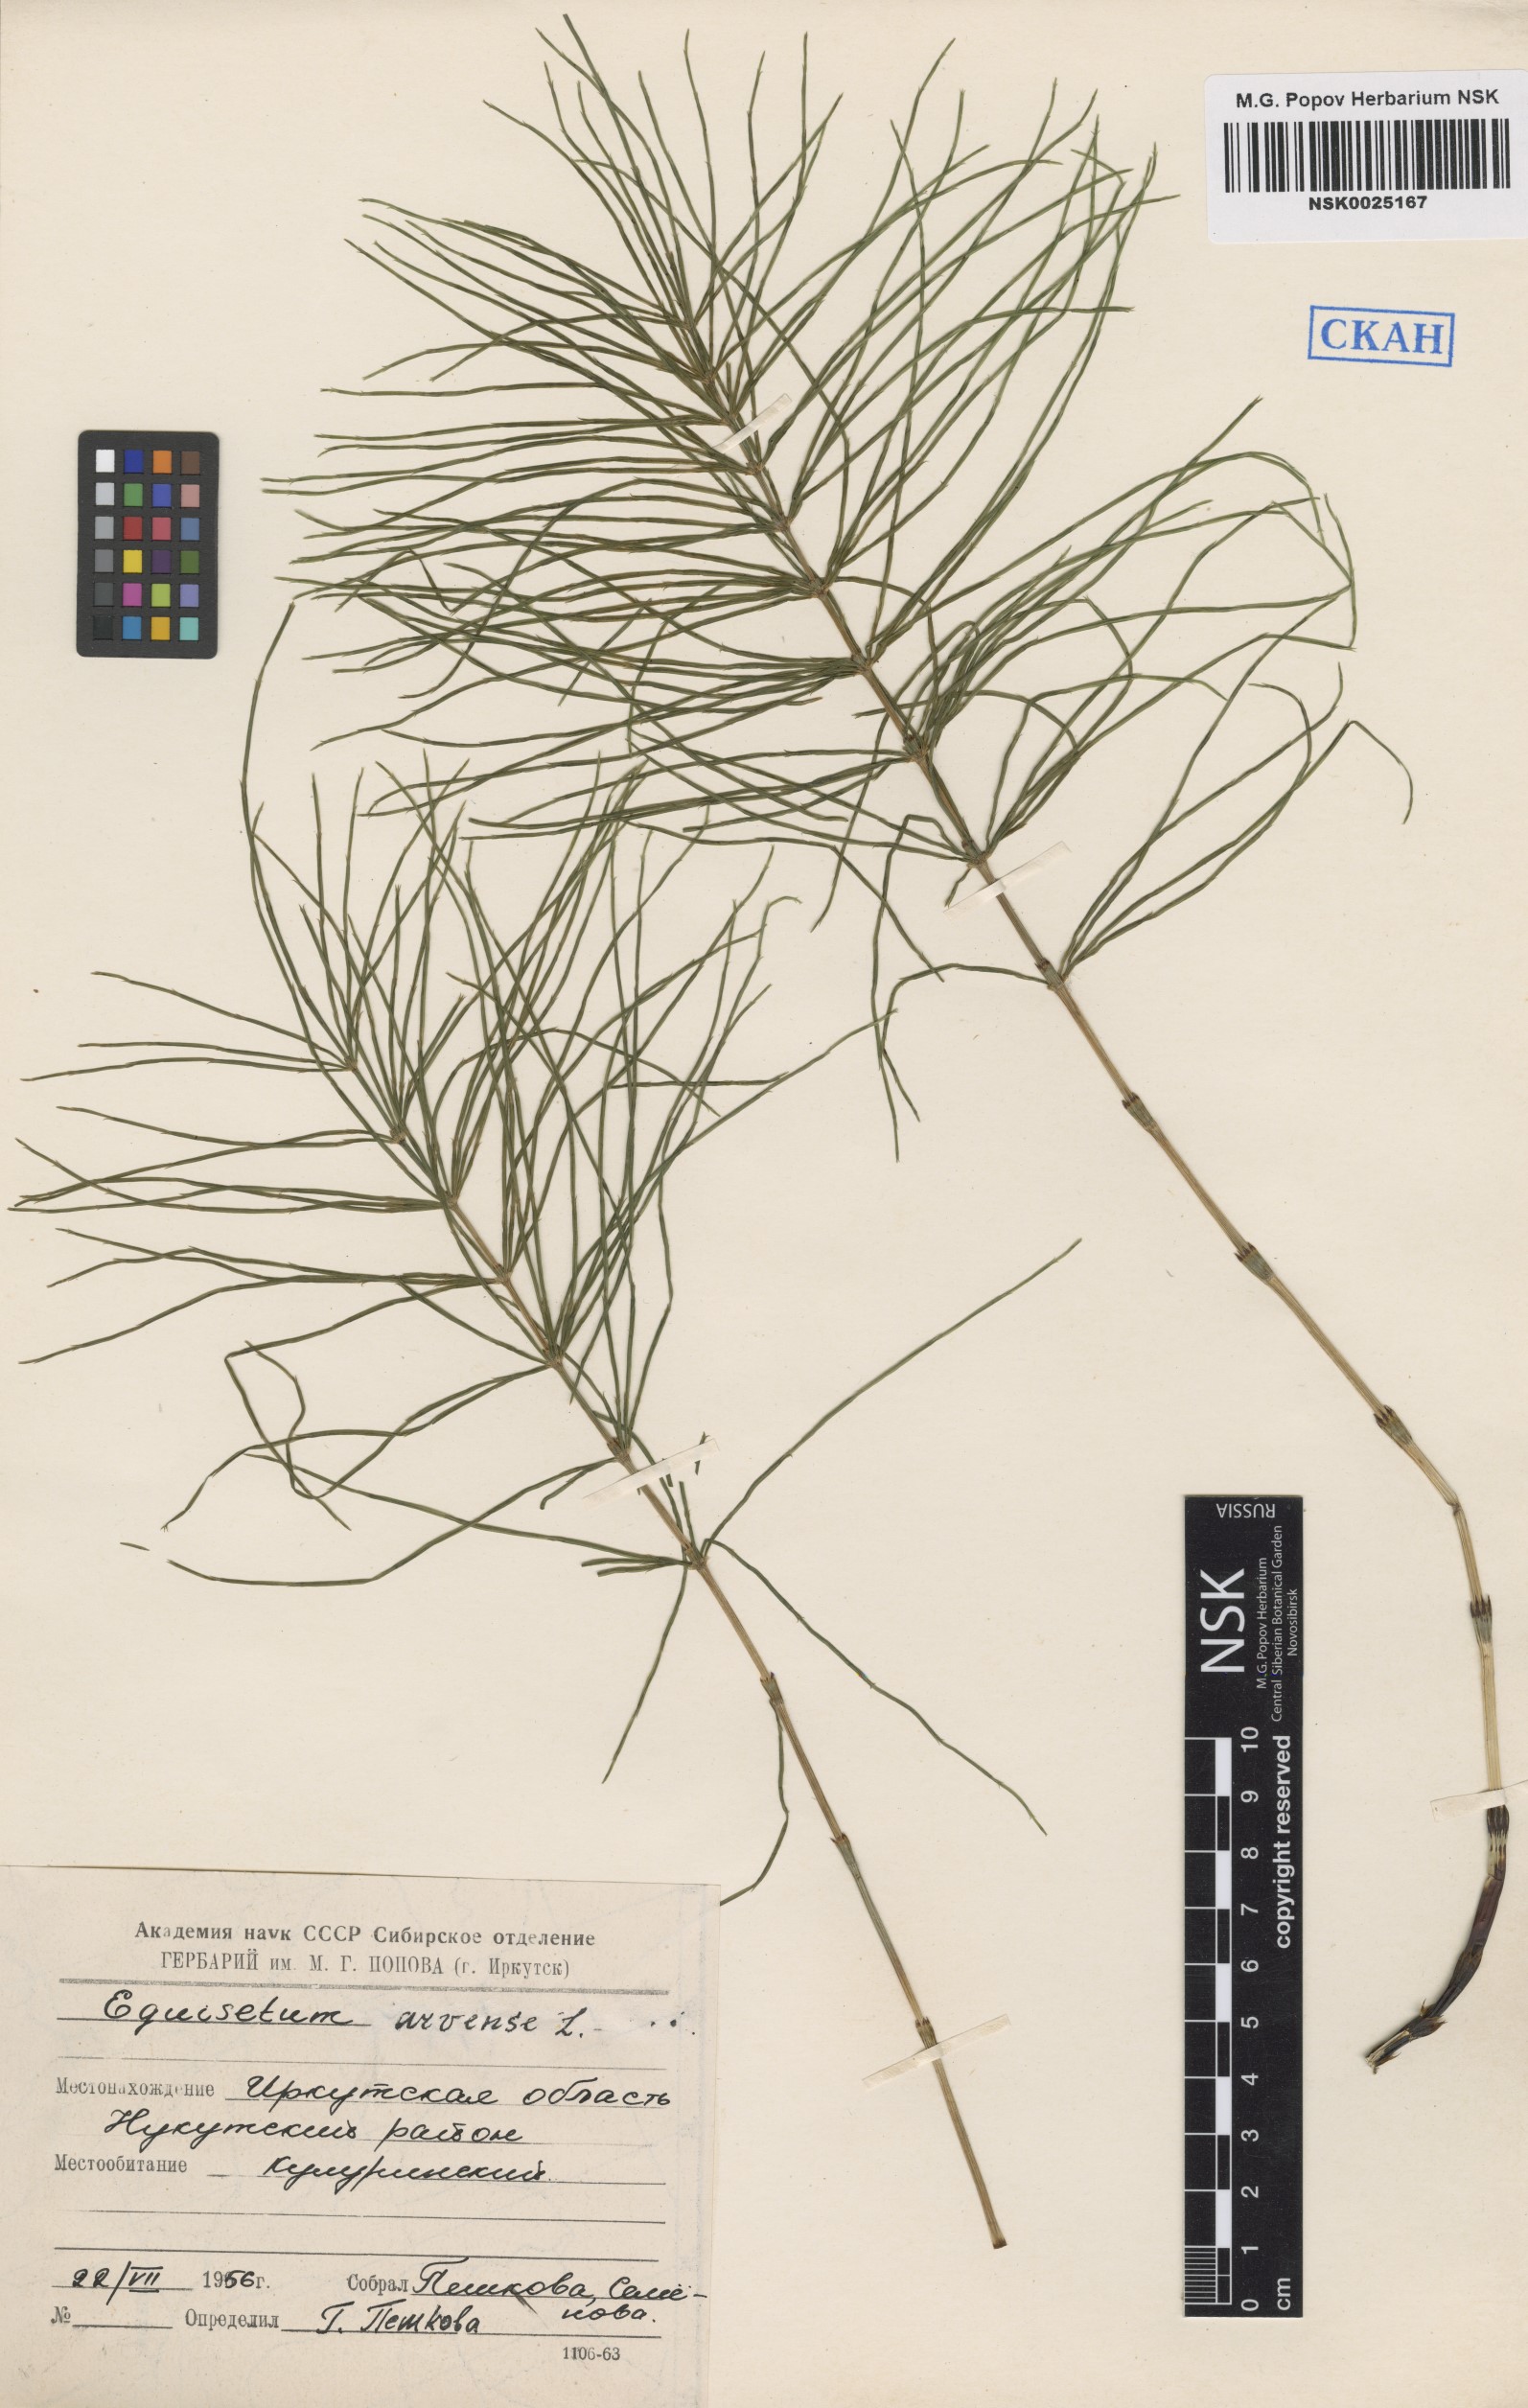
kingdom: Plantae
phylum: Tracheophyta
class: Polypodiopsida
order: Equisetales
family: Equisetaceae
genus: Equisetum
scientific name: Equisetum arvense
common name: Field horsetail
